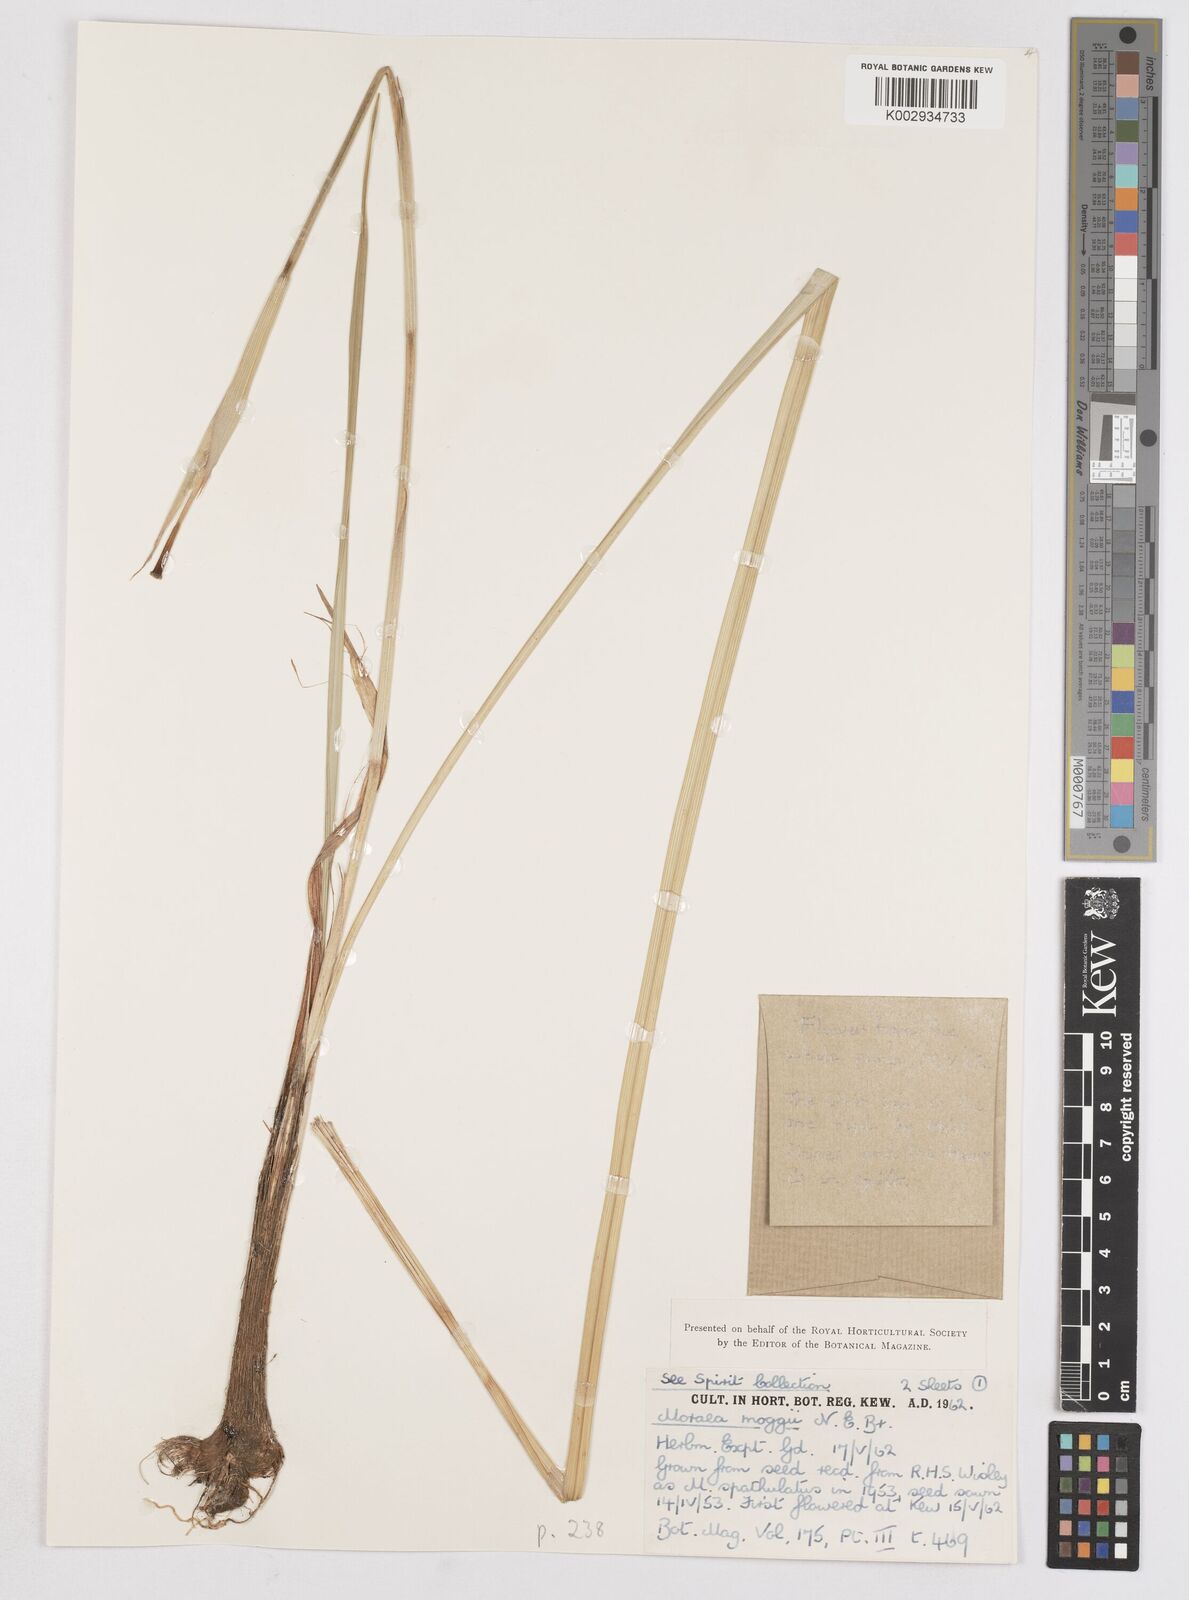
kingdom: Plantae
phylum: Tracheophyta
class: Liliopsida
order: Asparagales
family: Iridaceae
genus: Moraea
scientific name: Moraea moggii
